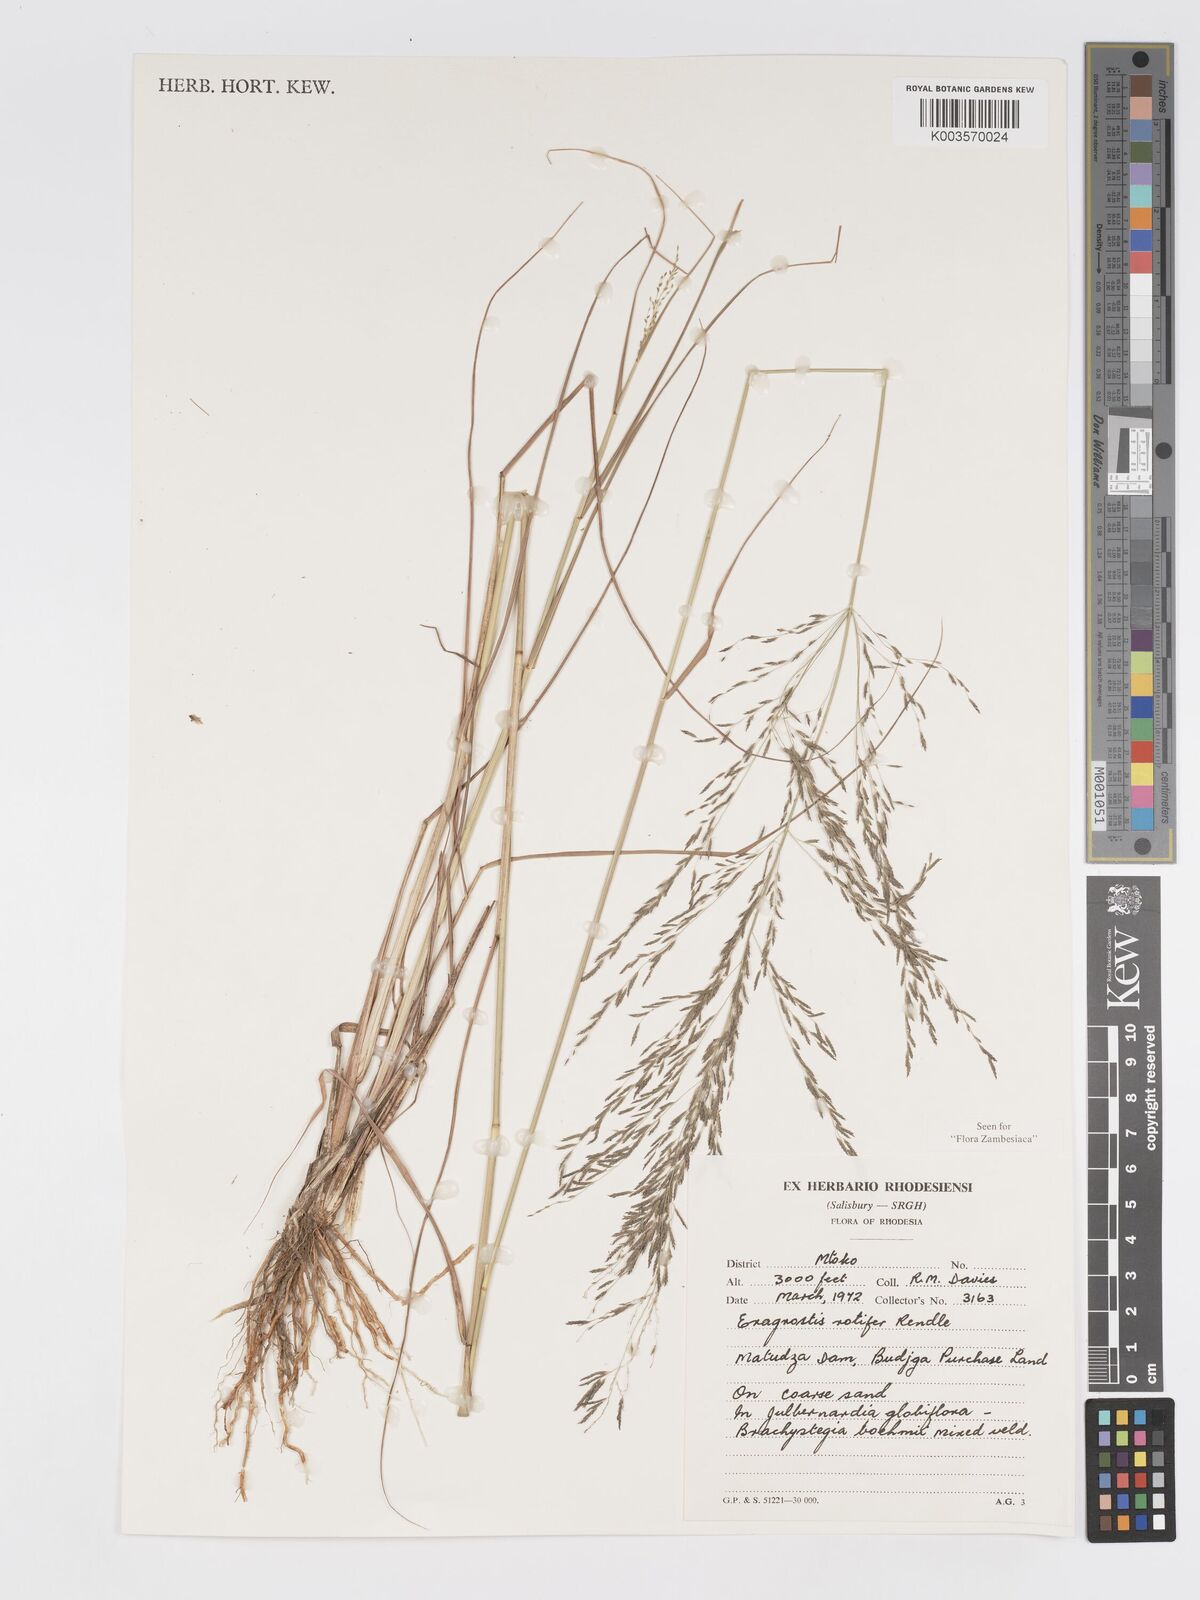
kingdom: Plantae
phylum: Tracheophyta
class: Liliopsida
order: Poales
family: Poaceae
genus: Eragrostis
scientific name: Eragrostis rotifer
